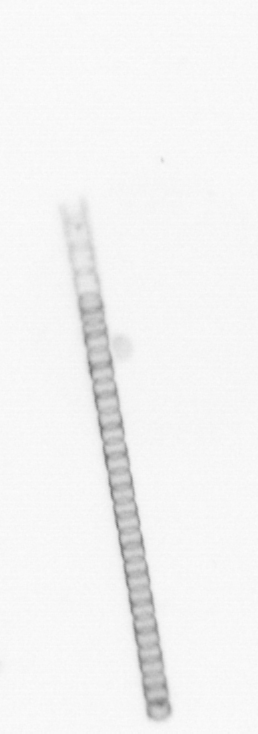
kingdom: Chromista
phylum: Ochrophyta
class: Bacillariophyceae
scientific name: Bacillariophyceae
